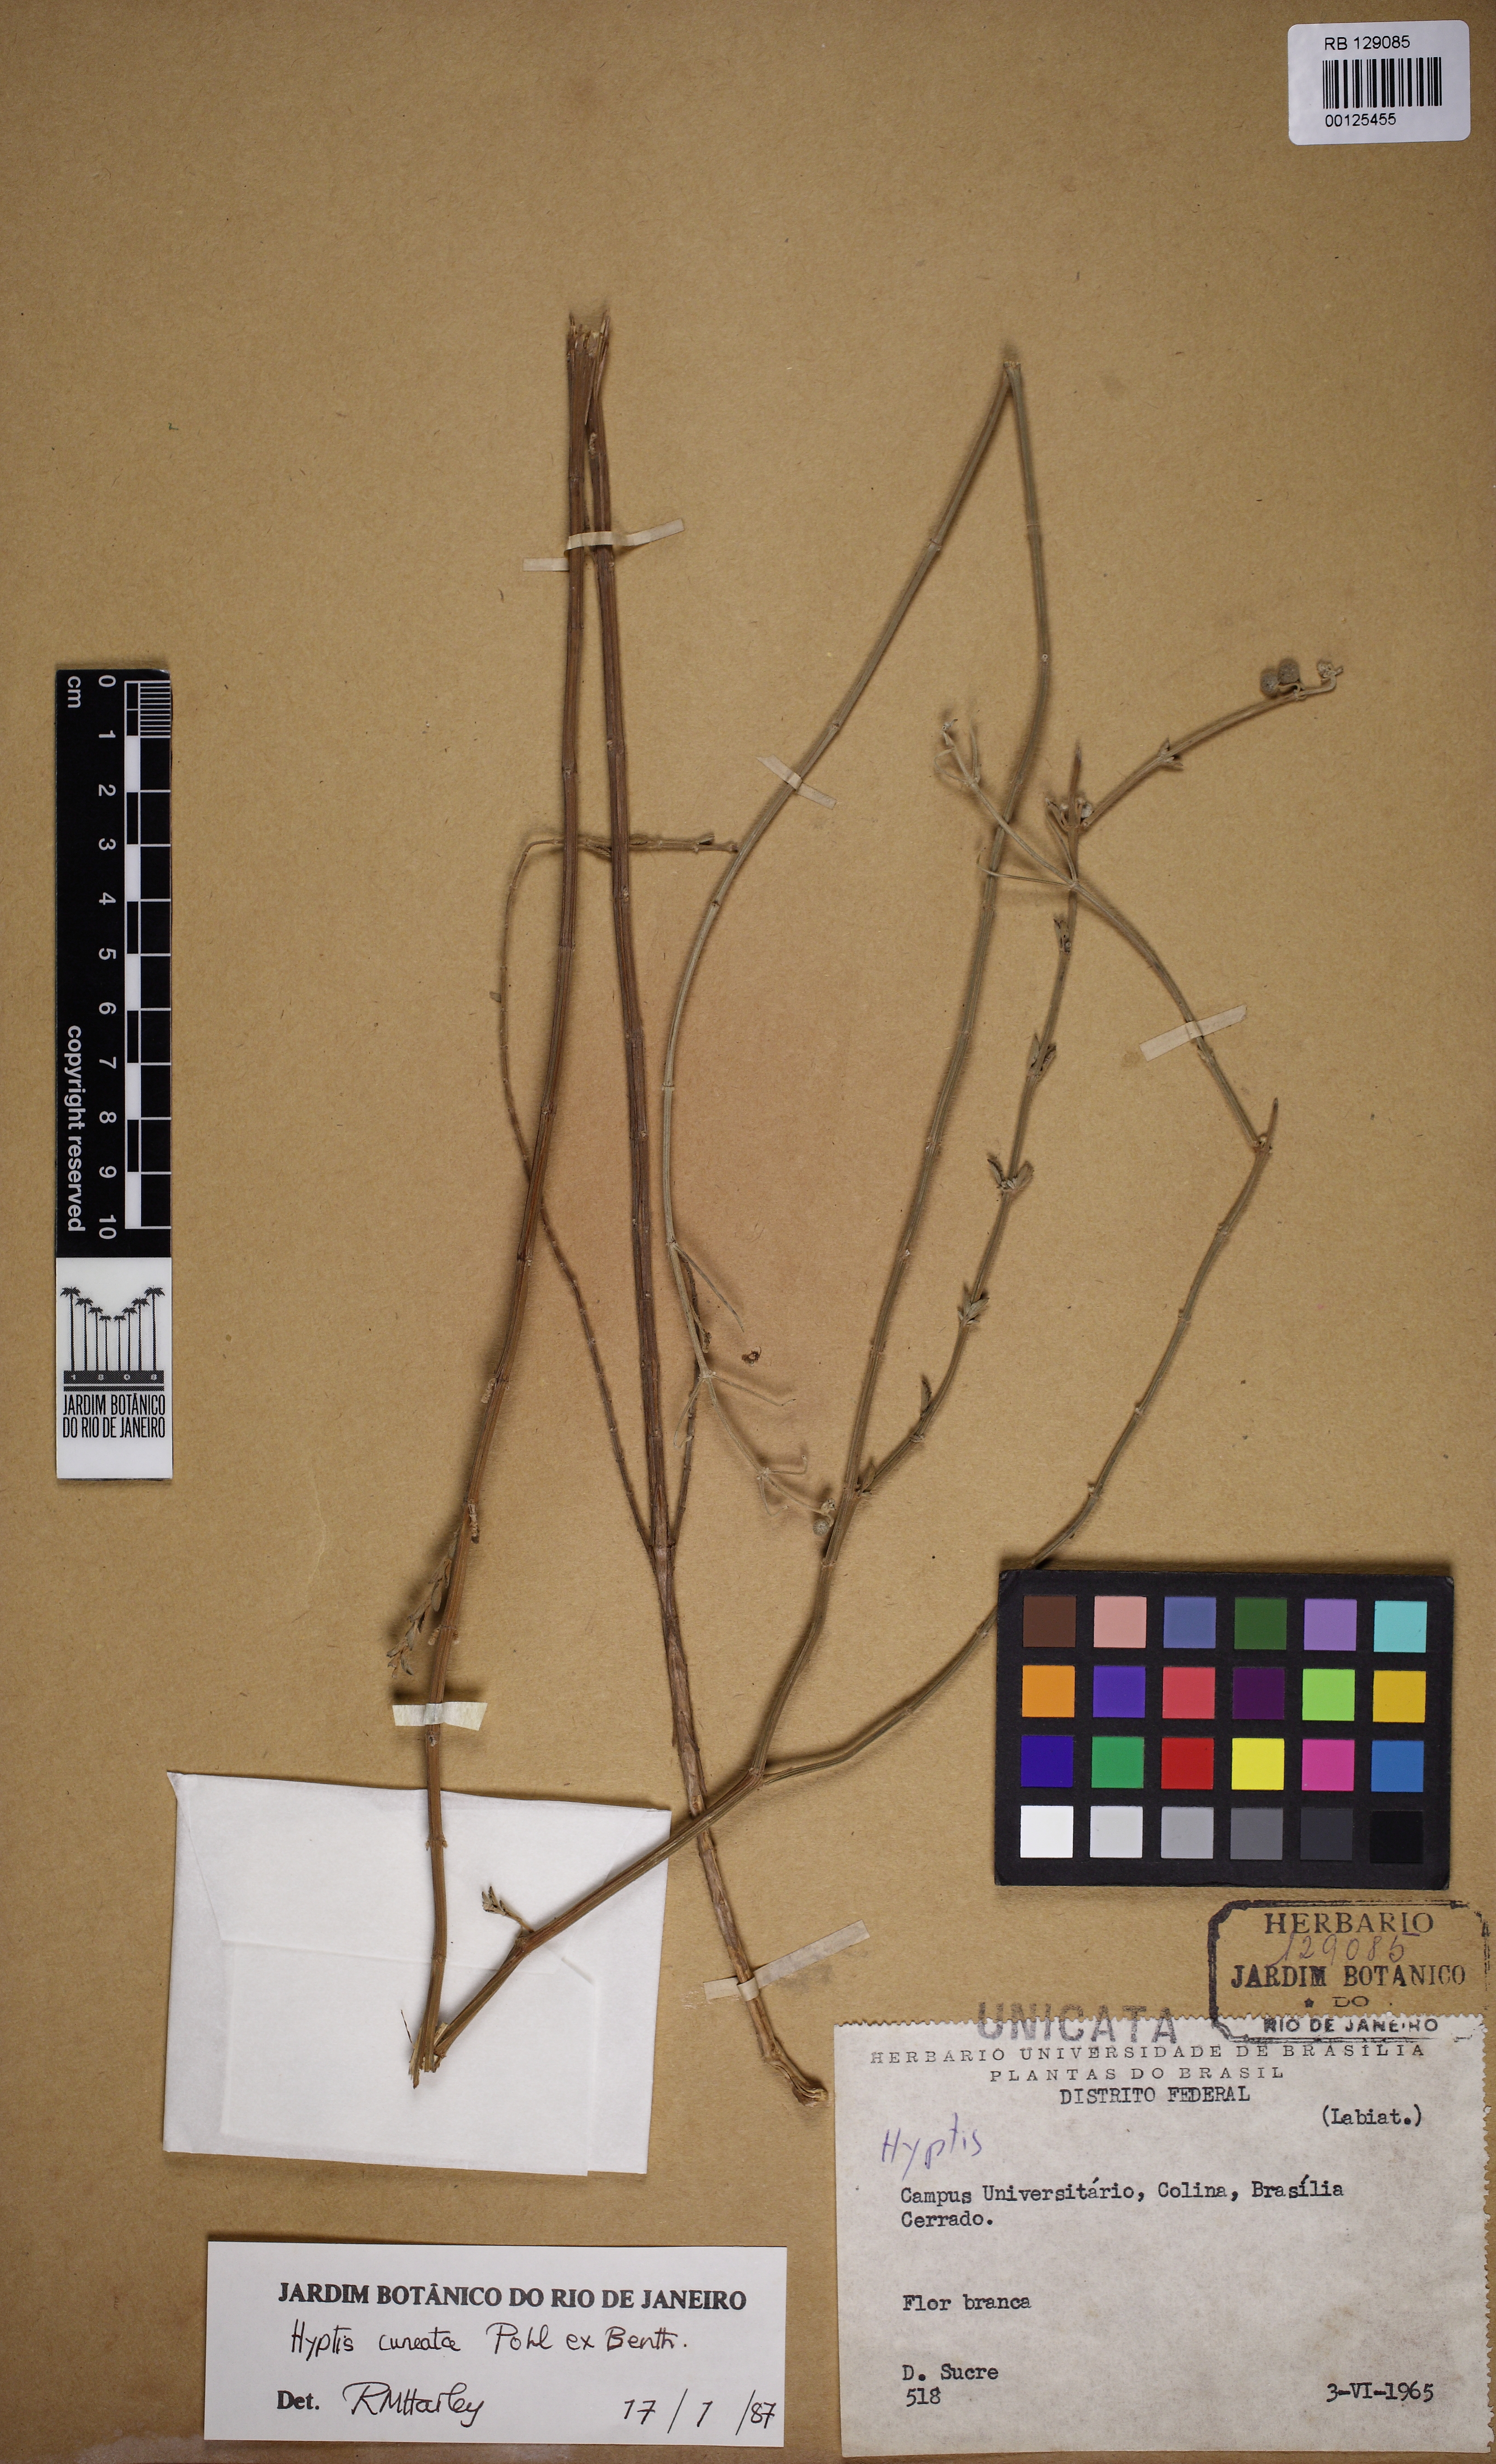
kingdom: Plantae
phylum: Tracheophyta
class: Magnoliopsida
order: Lamiales
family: Lamiaceae
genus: Cyanocephalus
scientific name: Cyanocephalus cuneatus
